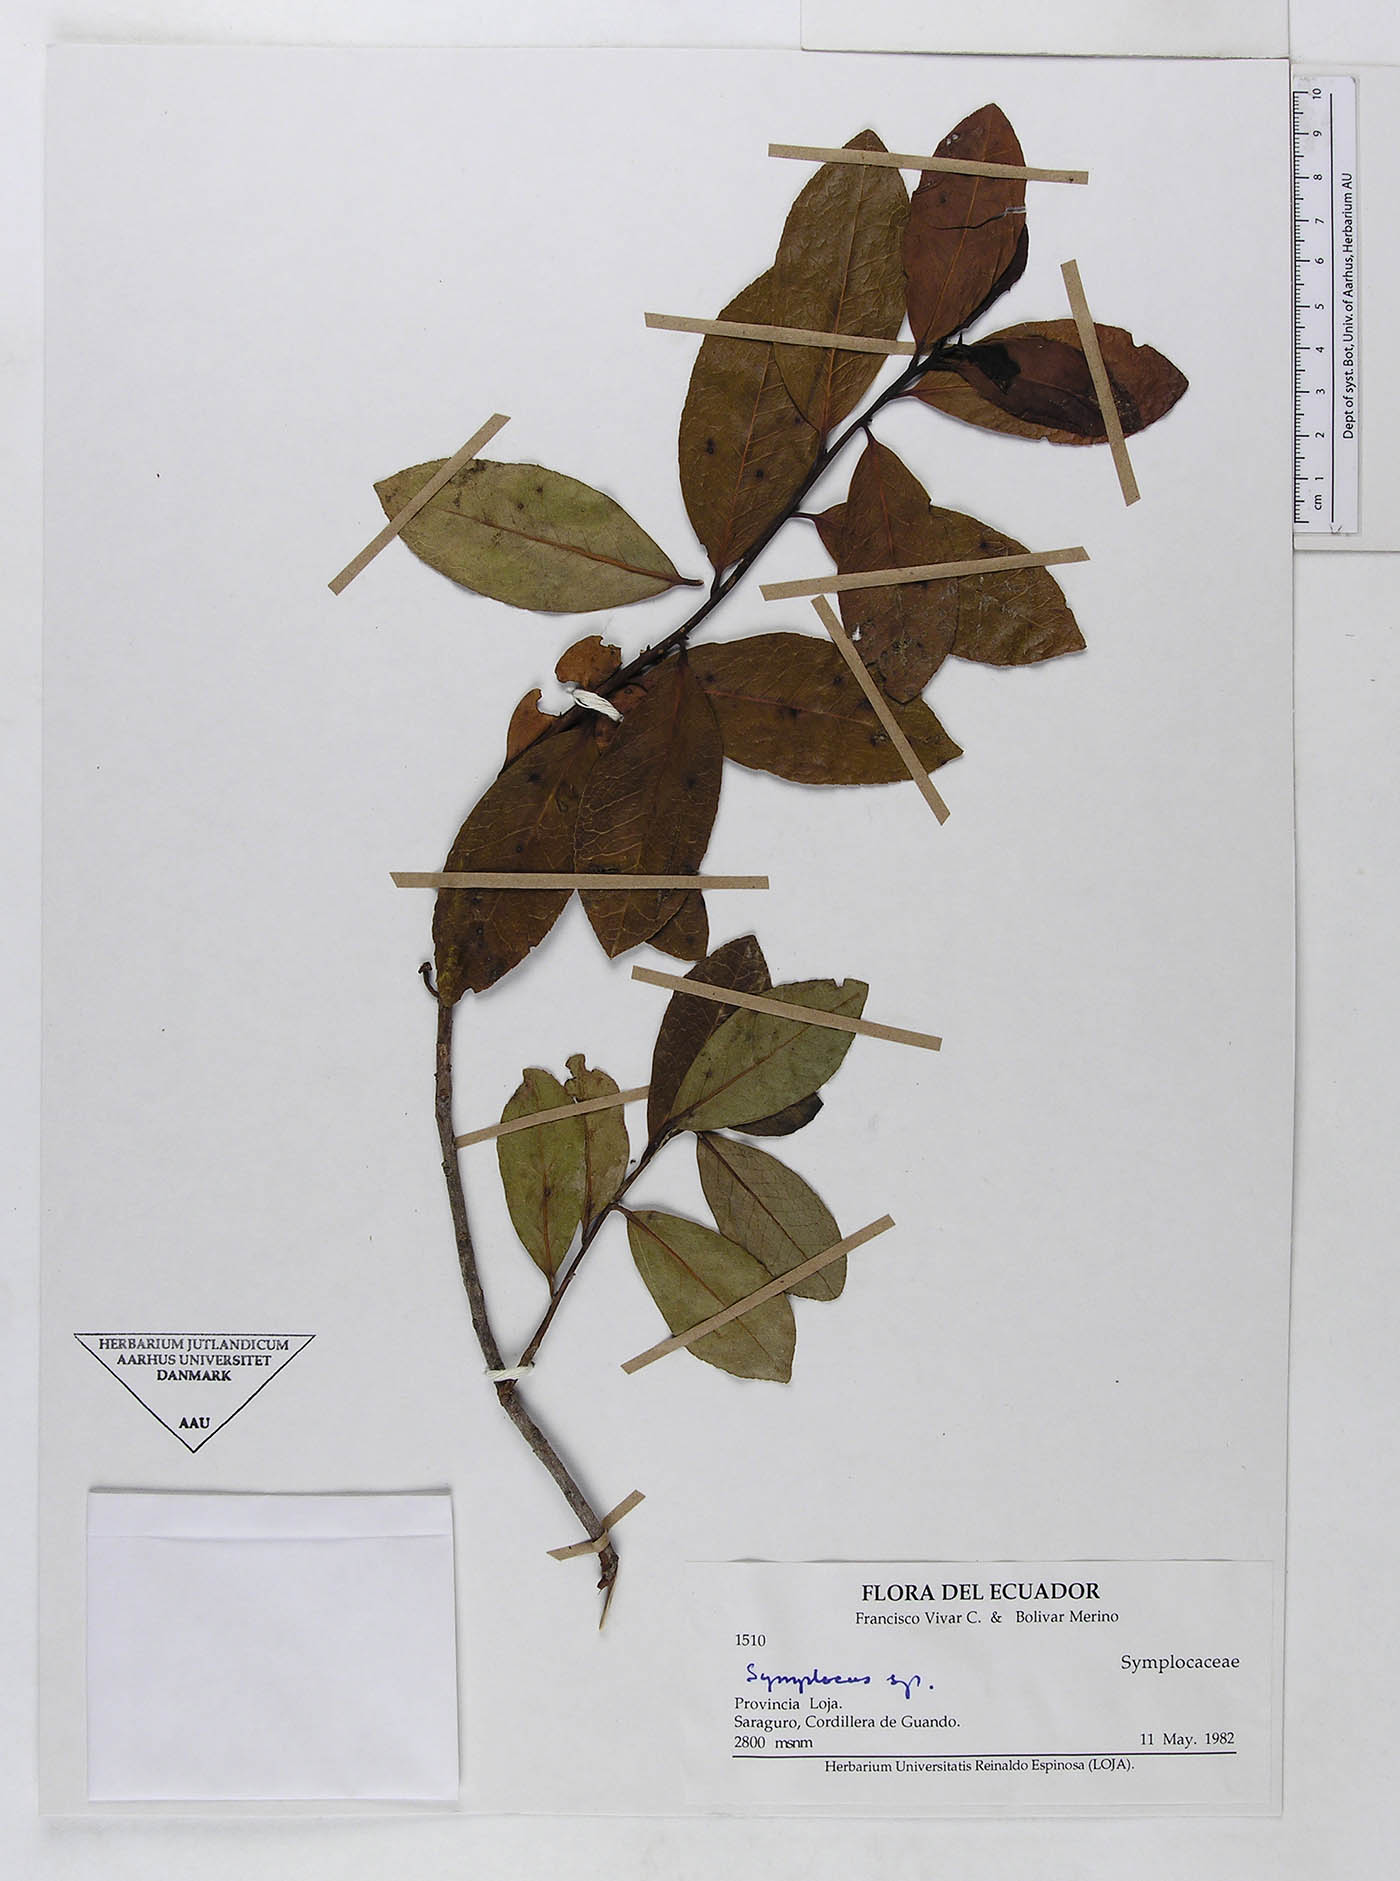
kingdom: Plantae
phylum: Tracheophyta
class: Magnoliopsida
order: Ericales
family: Symplocaceae
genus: Symplocos
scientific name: Symplocos nuda
